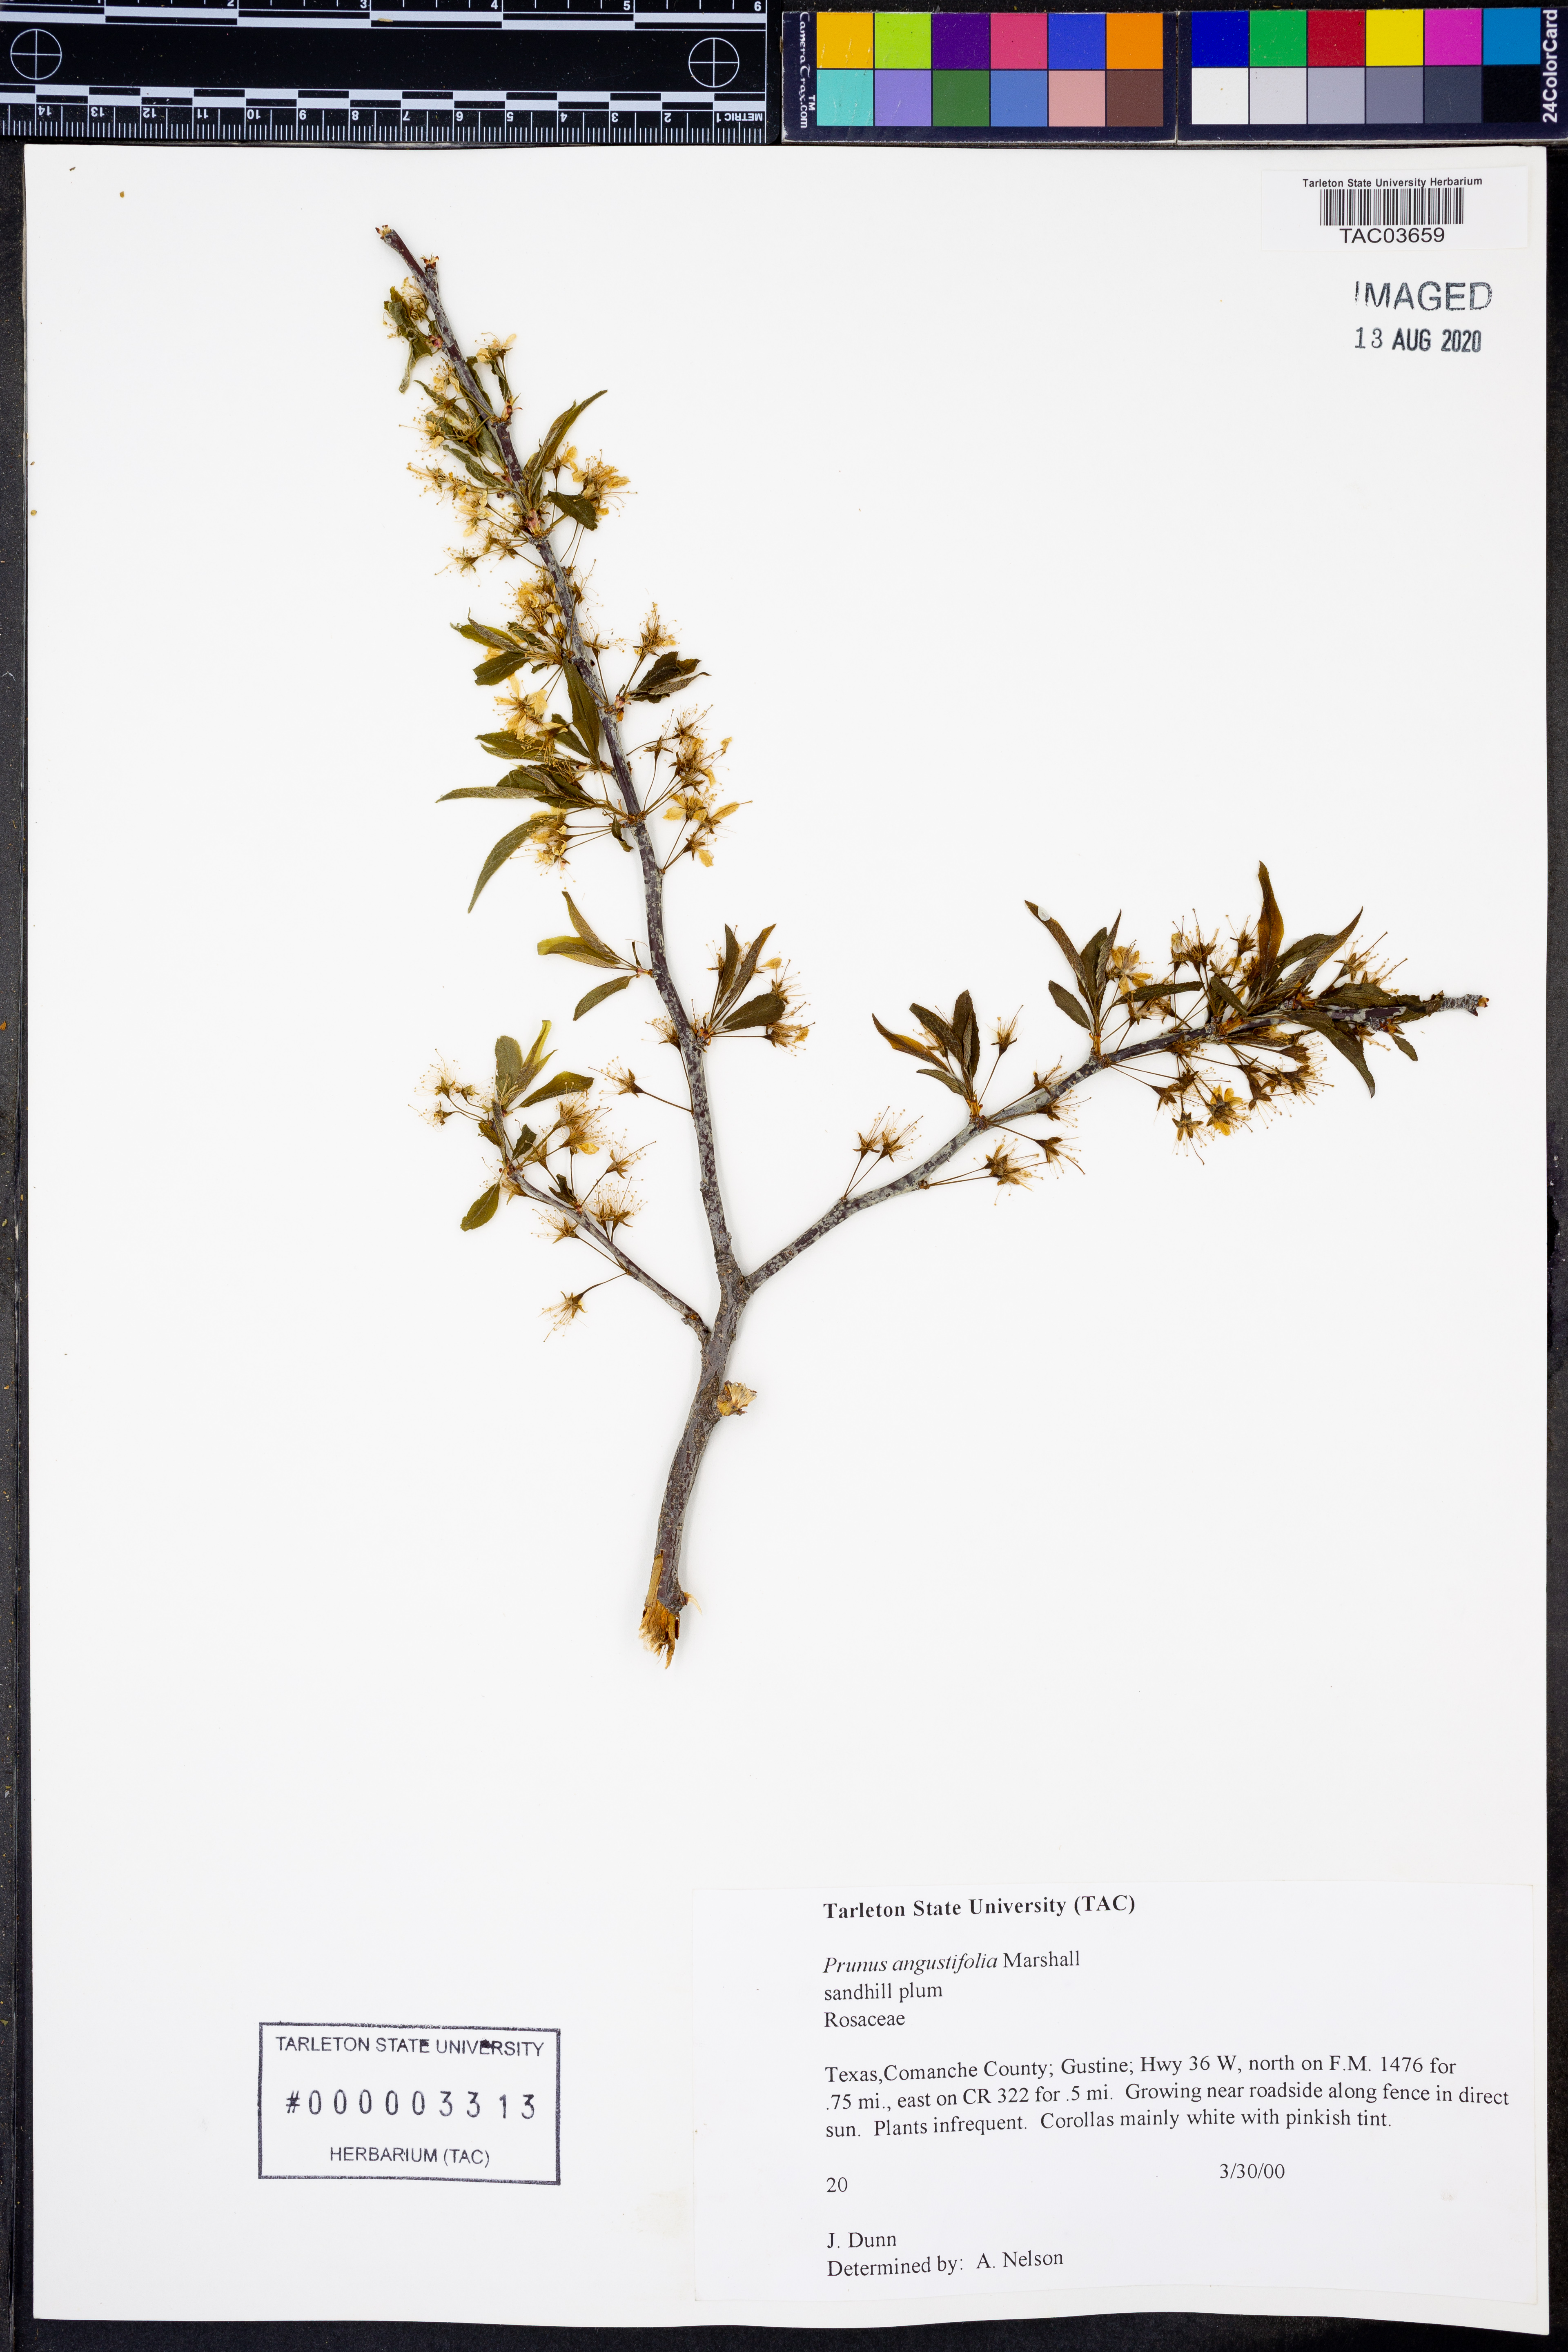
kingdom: Plantae
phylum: Tracheophyta
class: Magnoliopsida
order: Rosales
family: Rosaceae
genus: Prunus
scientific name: Prunus angustifolia
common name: Cherokee plum
